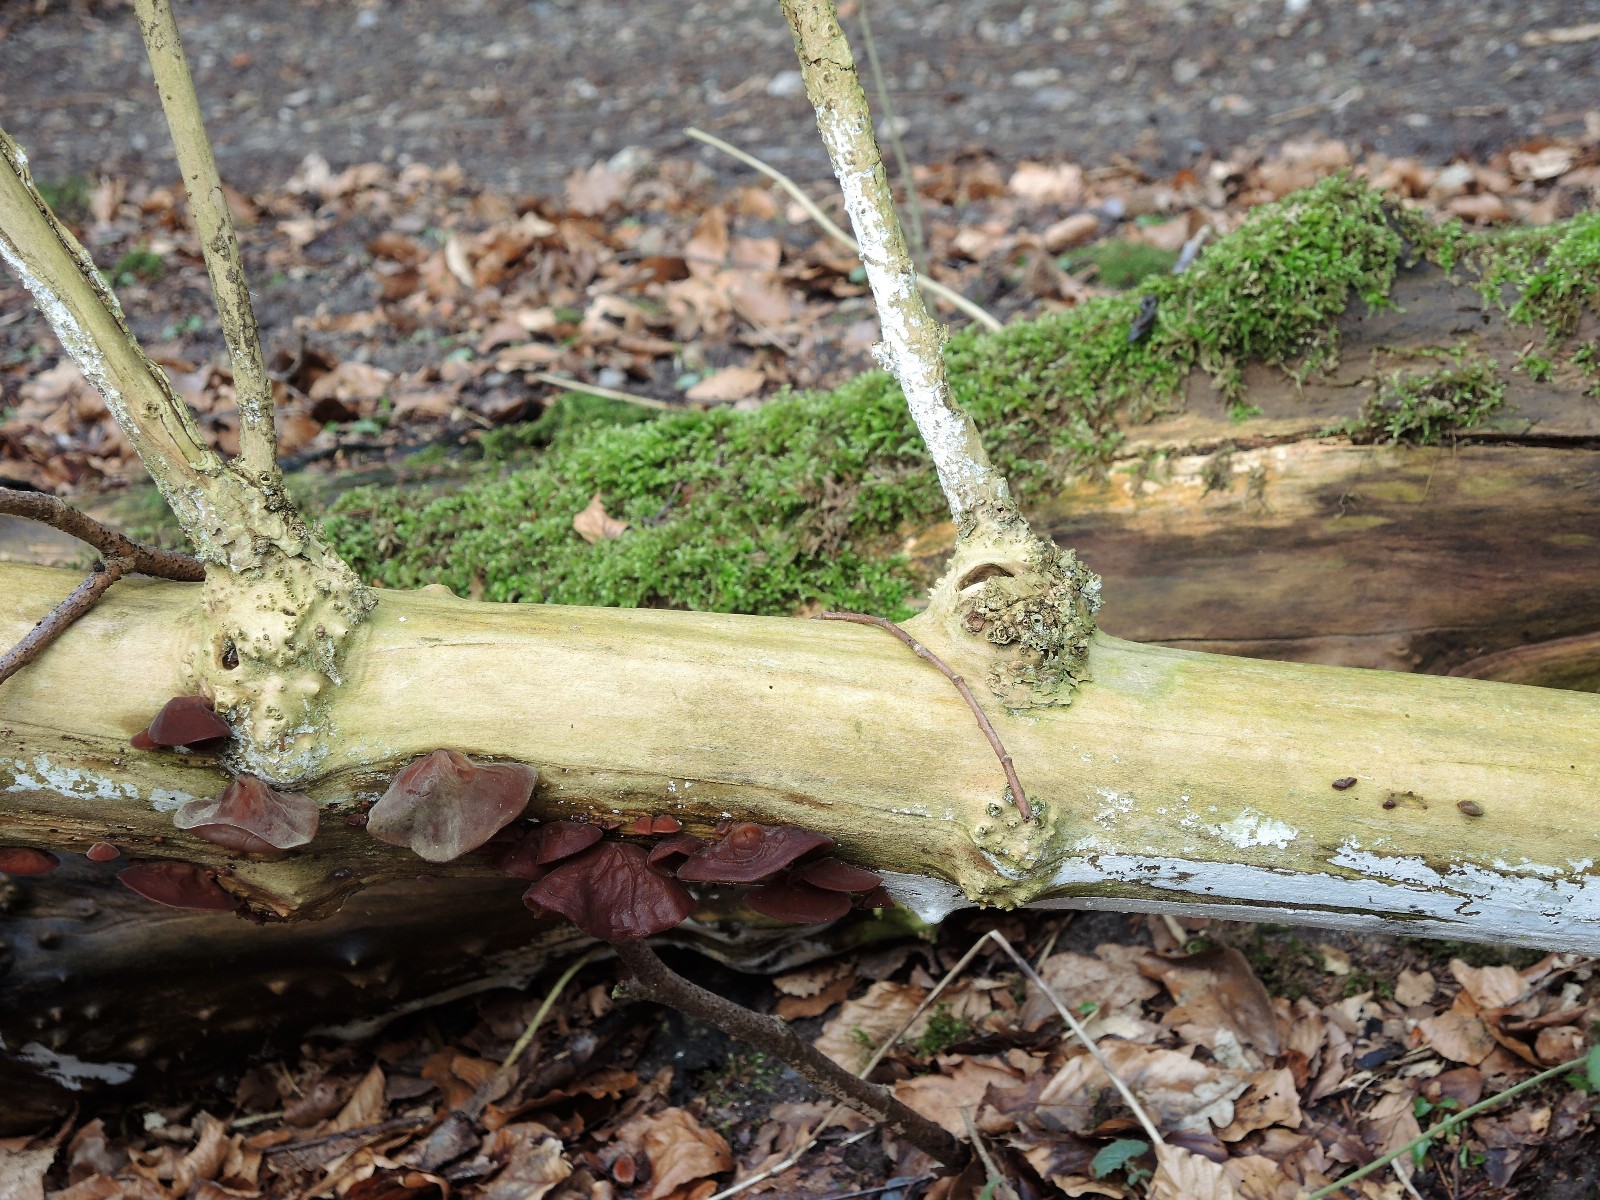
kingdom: Fungi
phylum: Basidiomycota
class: Agaricomycetes
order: Corticiales
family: Corticiaceae
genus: Lyomyces
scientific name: Lyomyces sambuci
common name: almindelig hyldehinde
